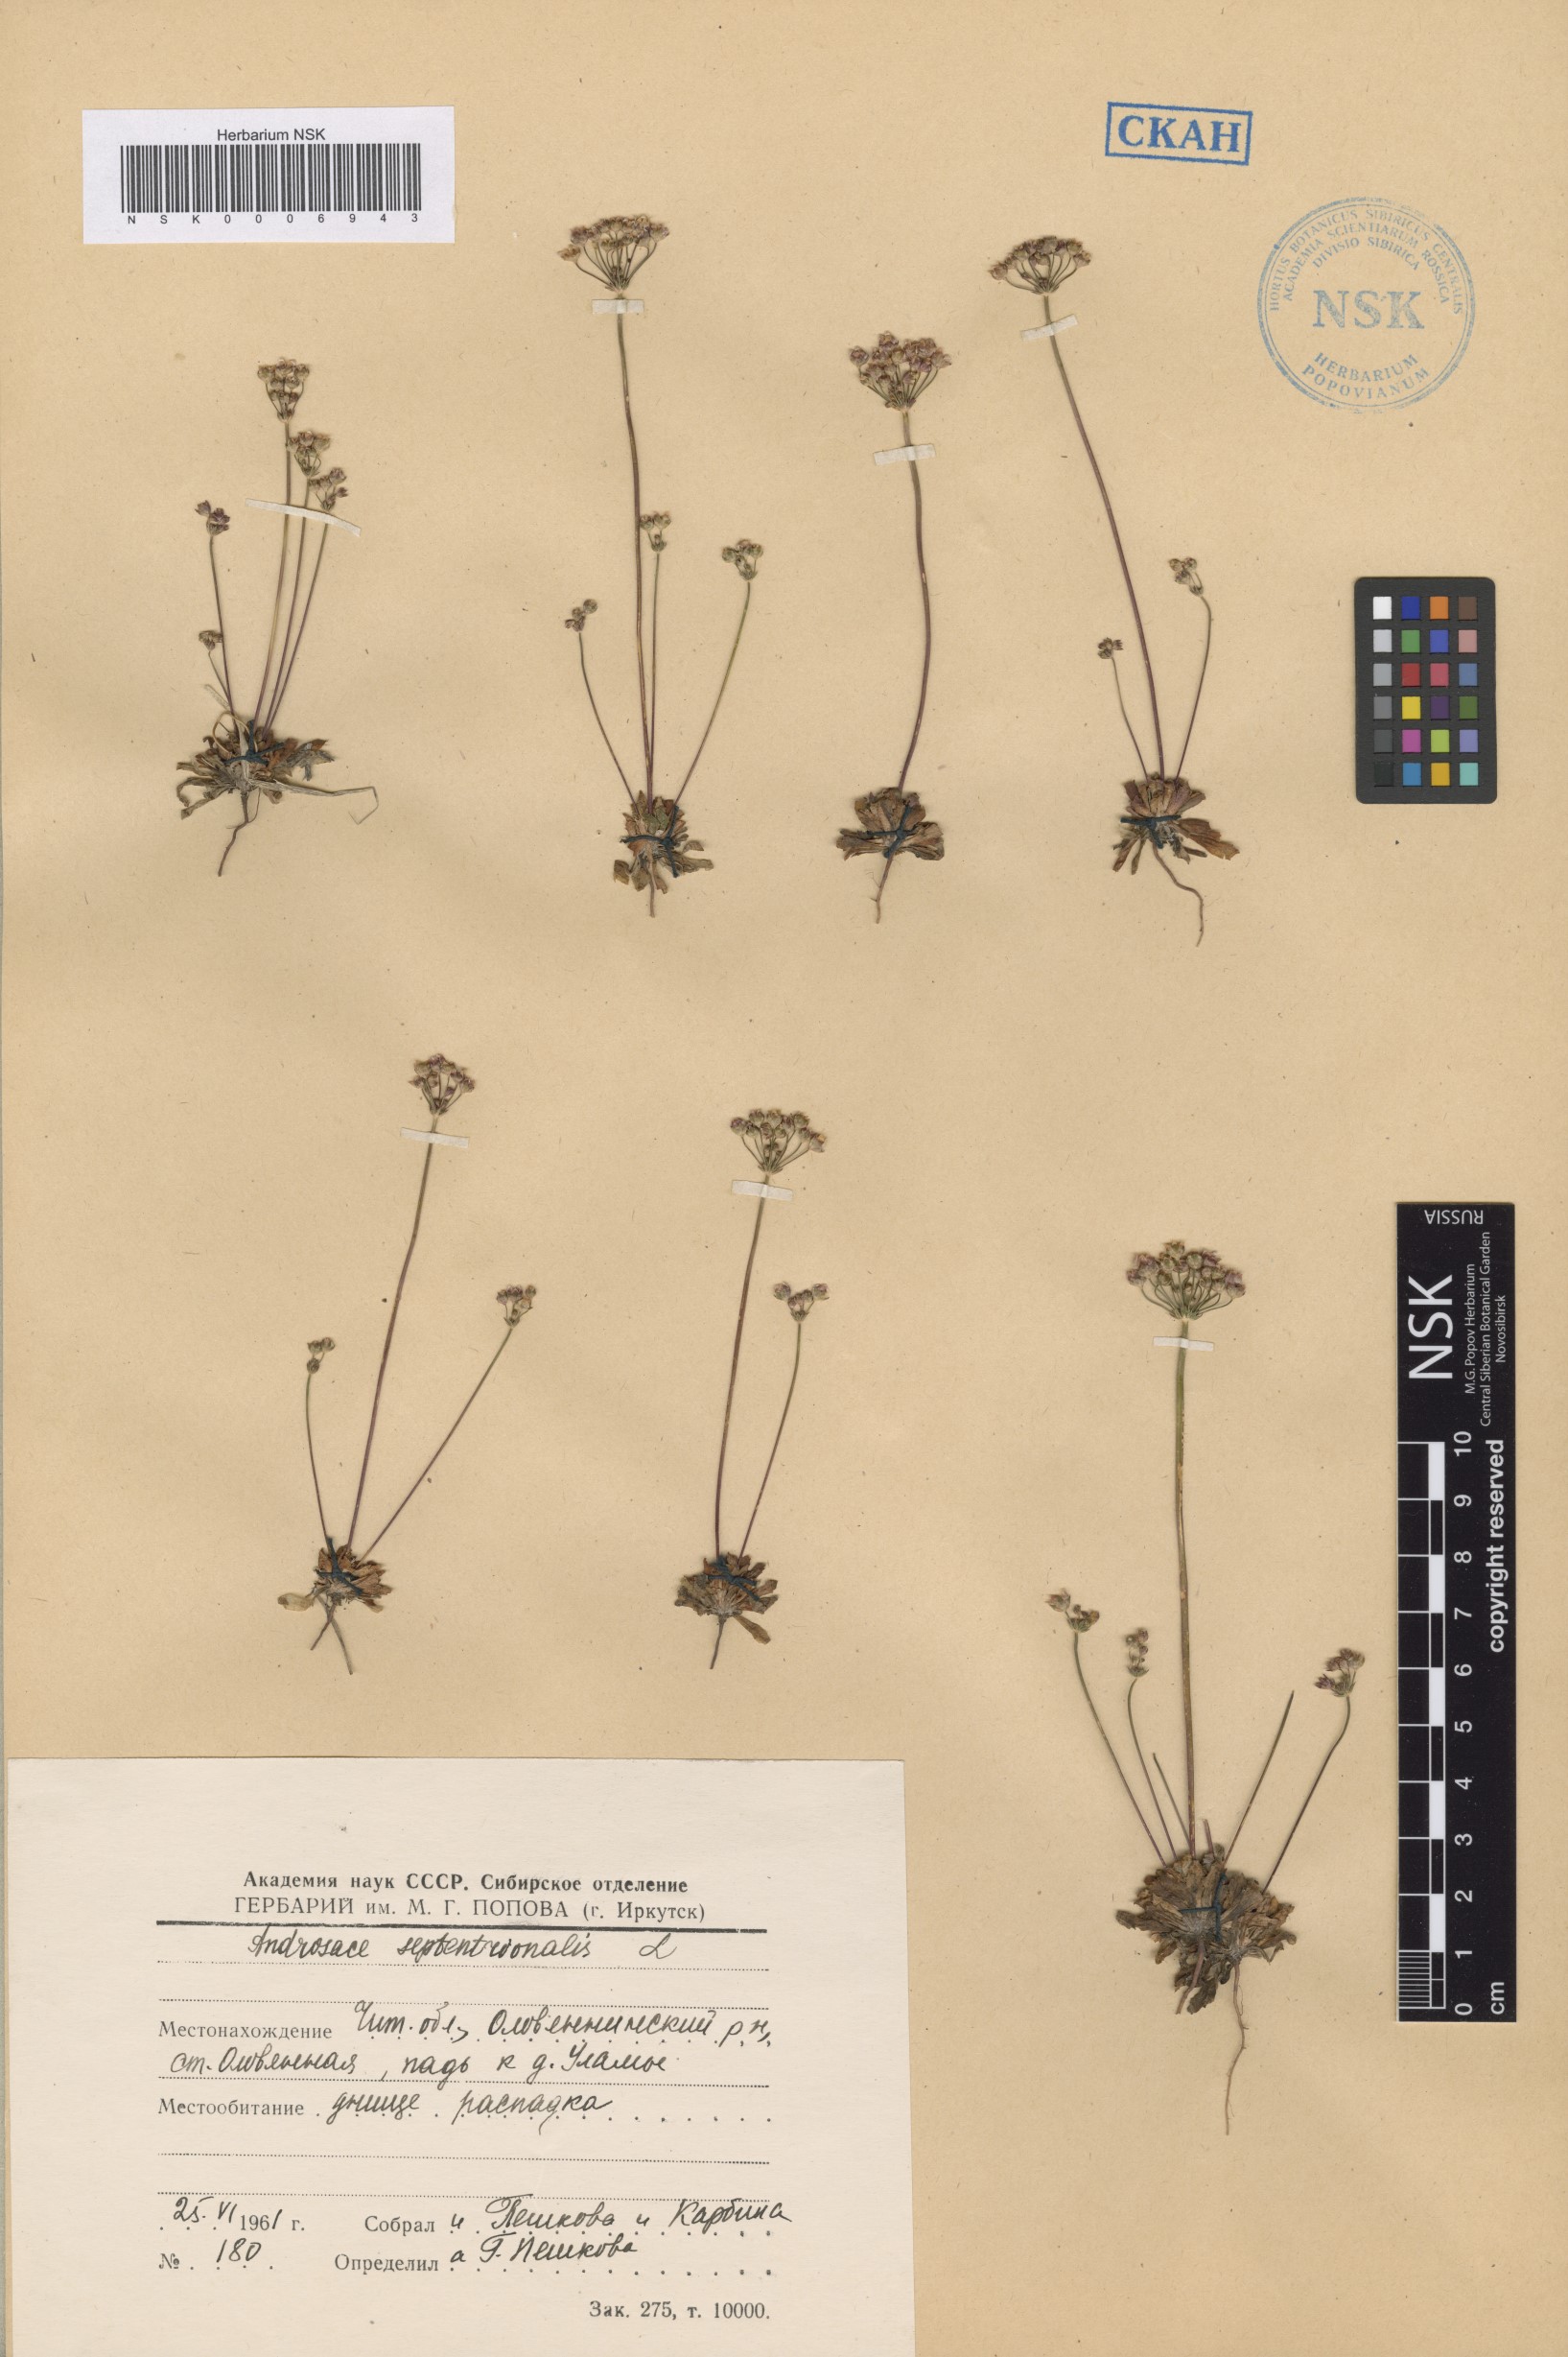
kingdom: Plantae
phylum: Tracheophyta
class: Magnoliopsida
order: Ericales
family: Primulaceae
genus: Androsace
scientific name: Androsace septentrionalis
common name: Hairy northern fairy-candelabra
